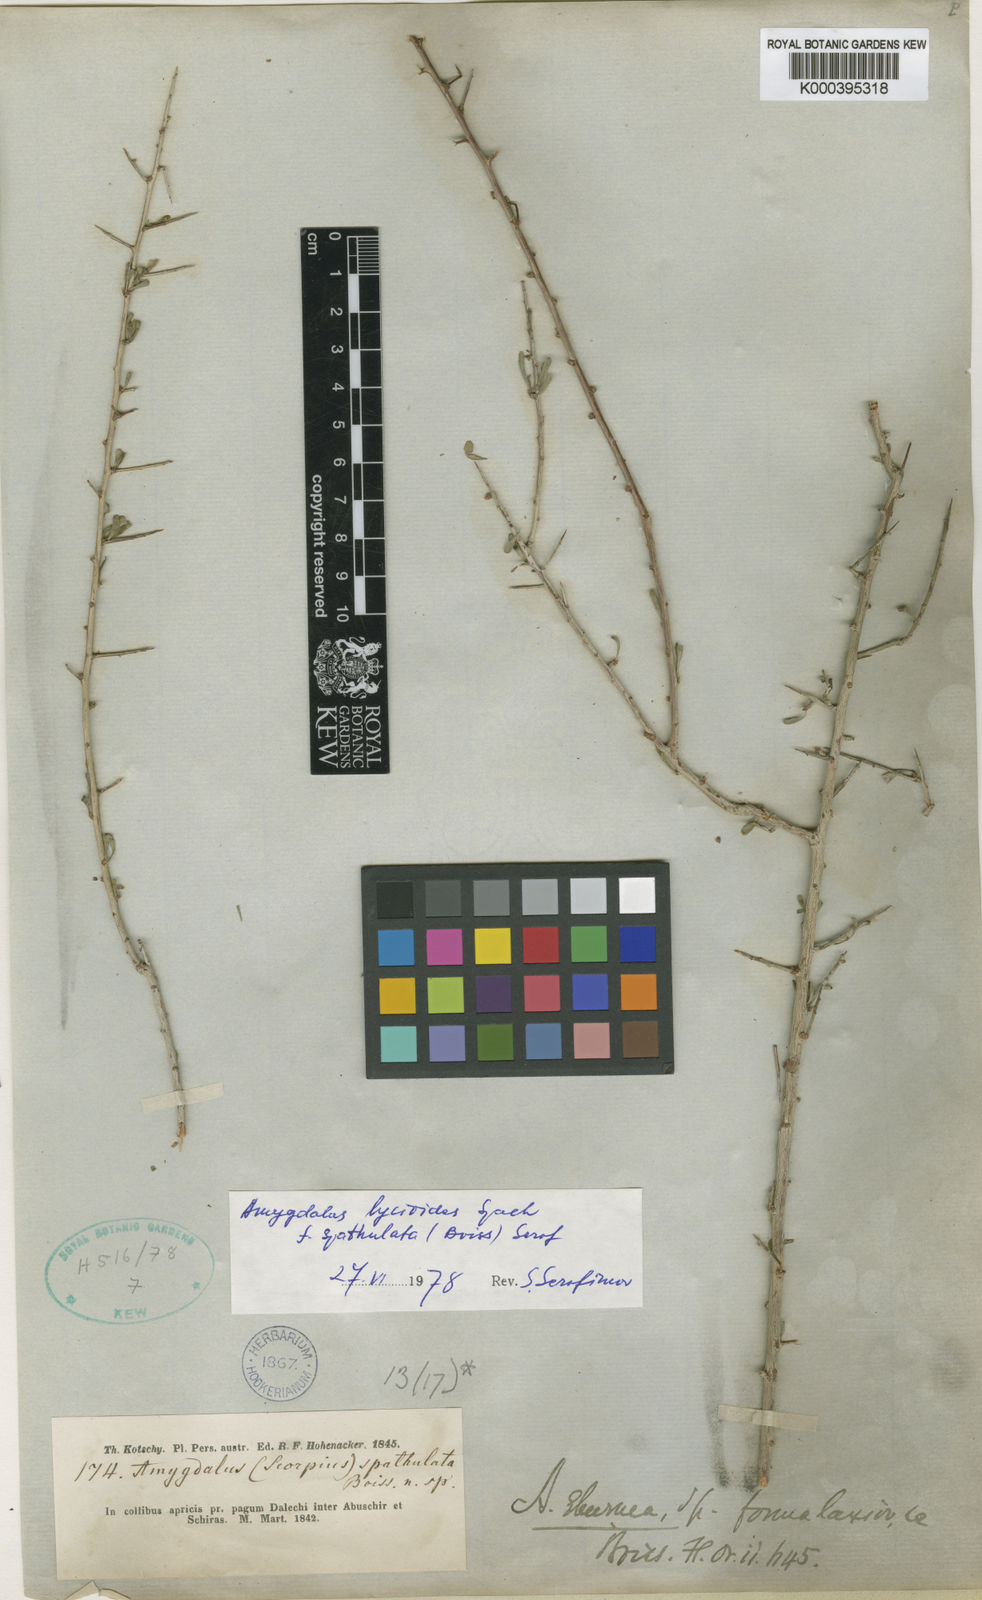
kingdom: Plantae
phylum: Tracheophyta
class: Magnoliopsida
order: Rosales
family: Rosaceae
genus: Prunus
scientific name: Prunus lycioides
